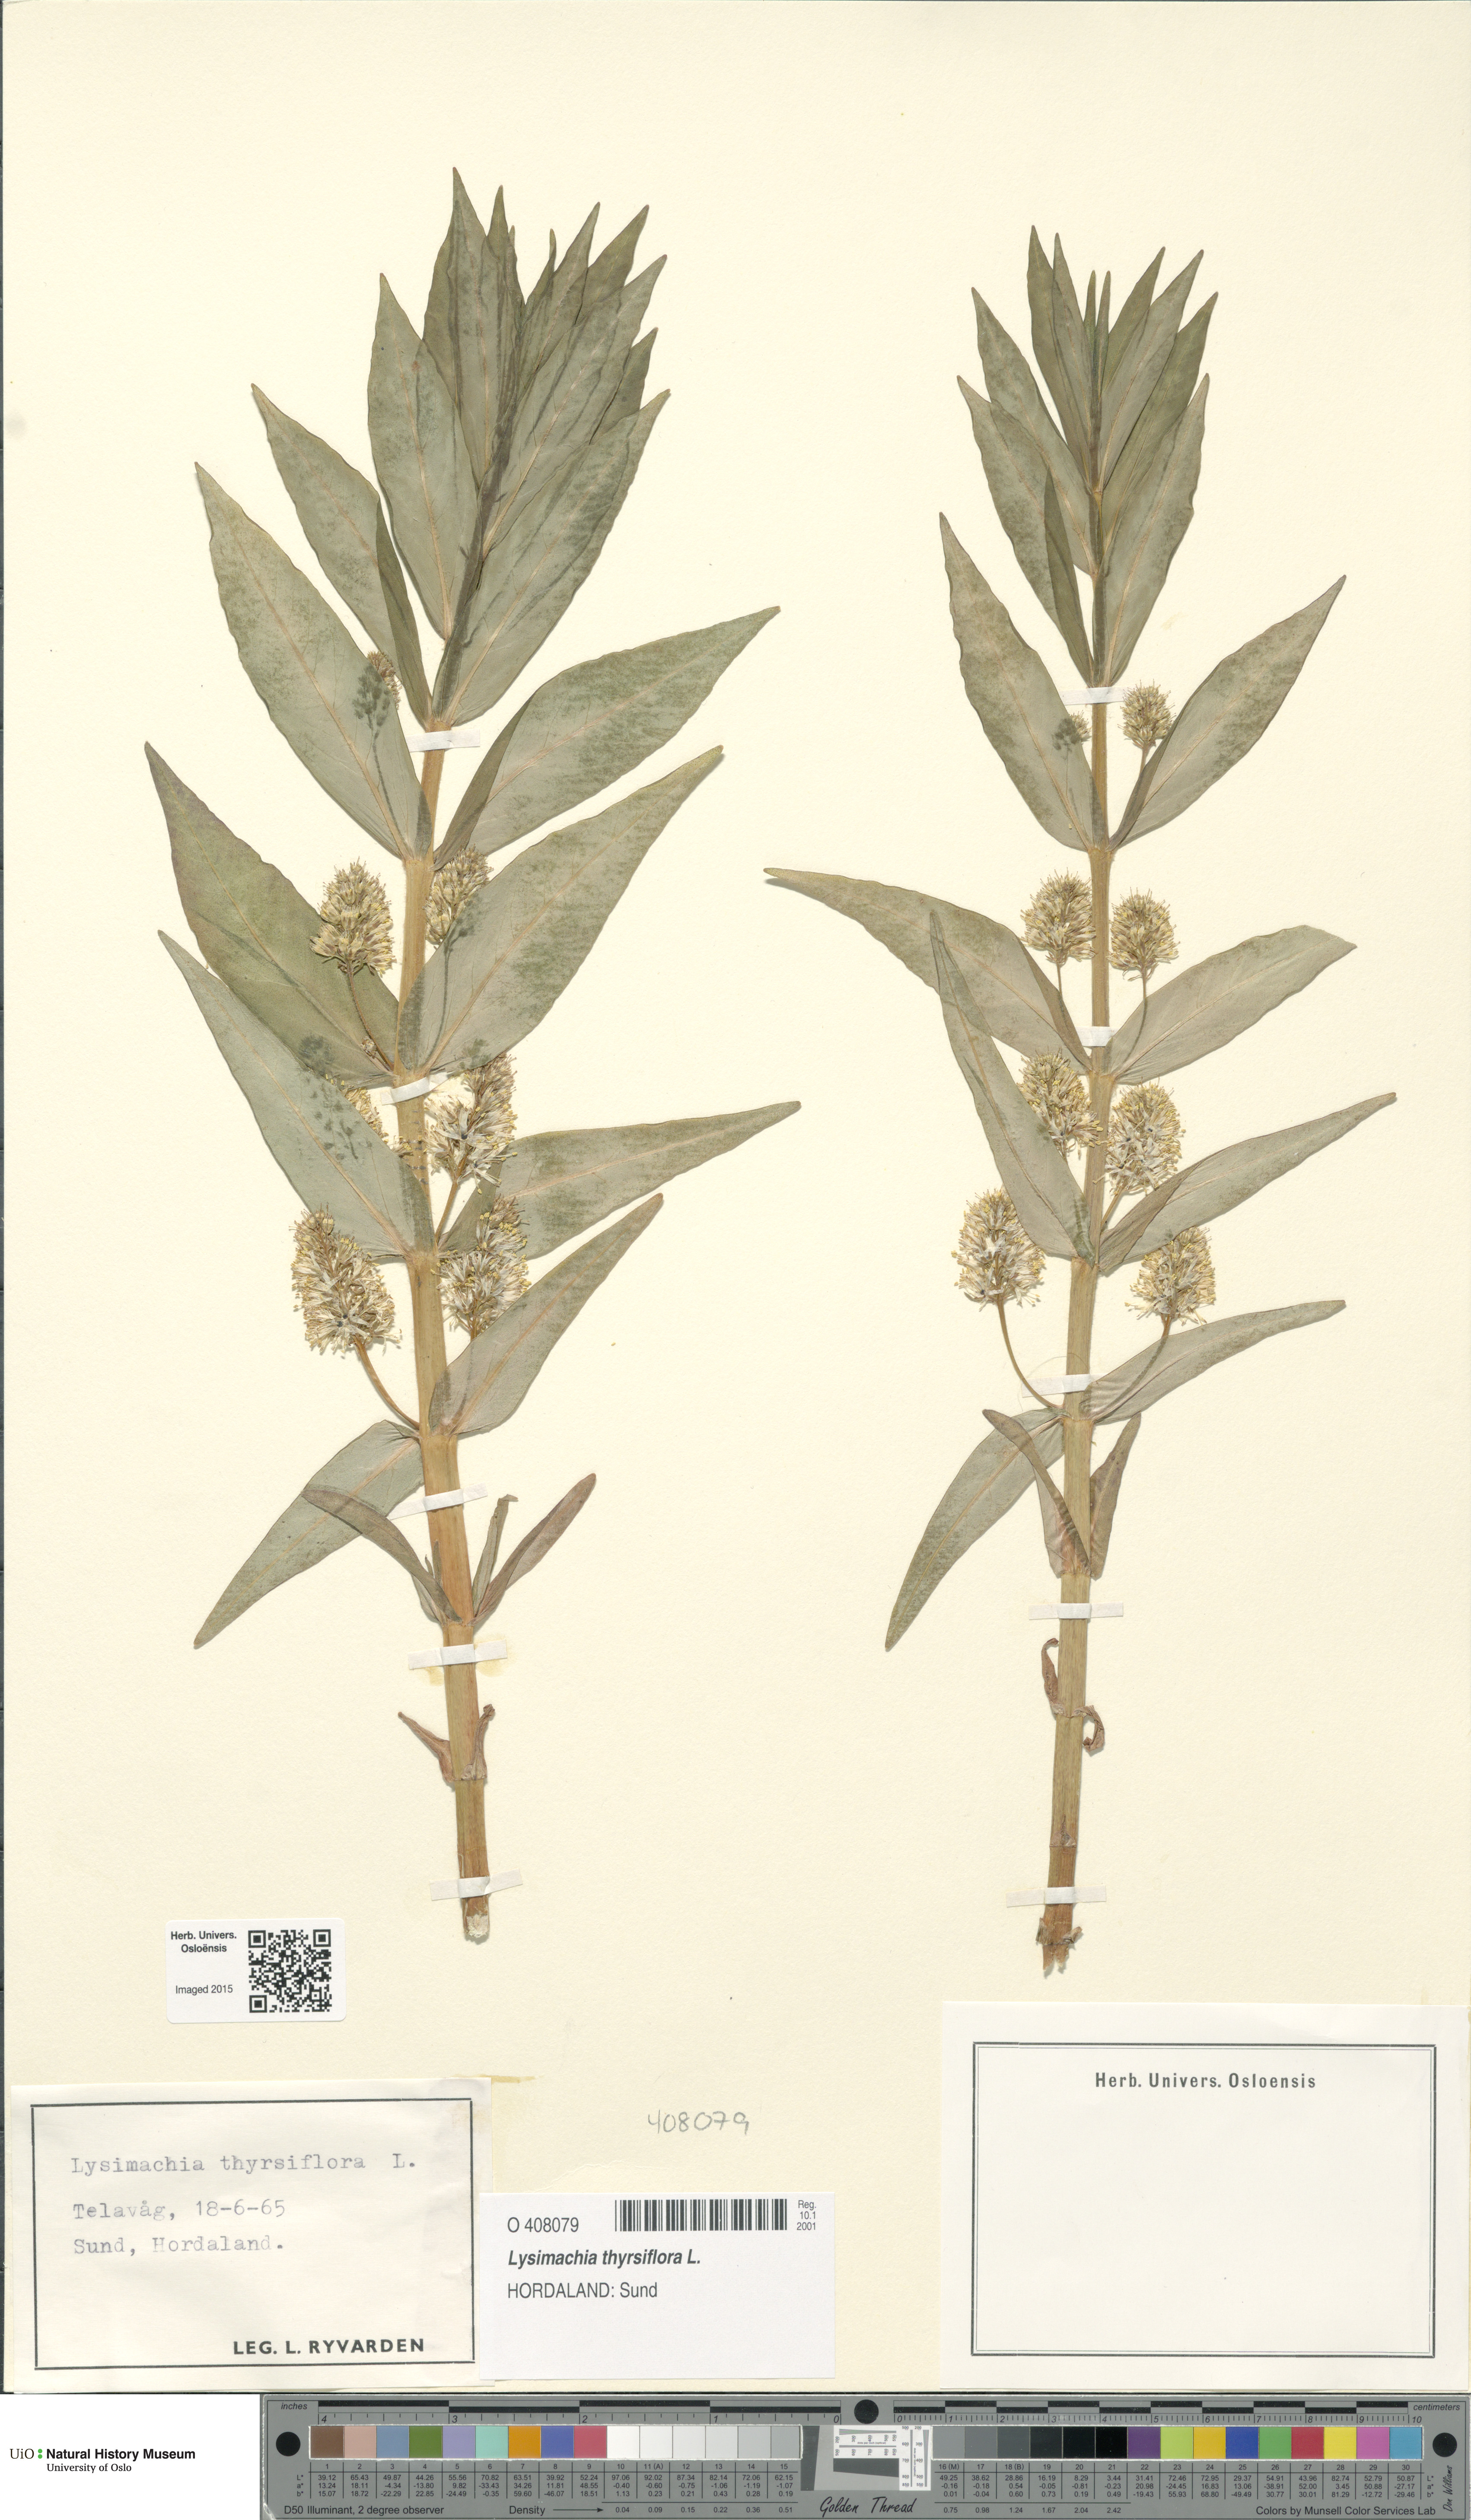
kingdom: Plantae
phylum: Tracheophyta
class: Magnoliopsida
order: Ericales
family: Primulaceae
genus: Lysimachia
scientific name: Lysimachia thyrsiflora
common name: Tufted loosestrife
